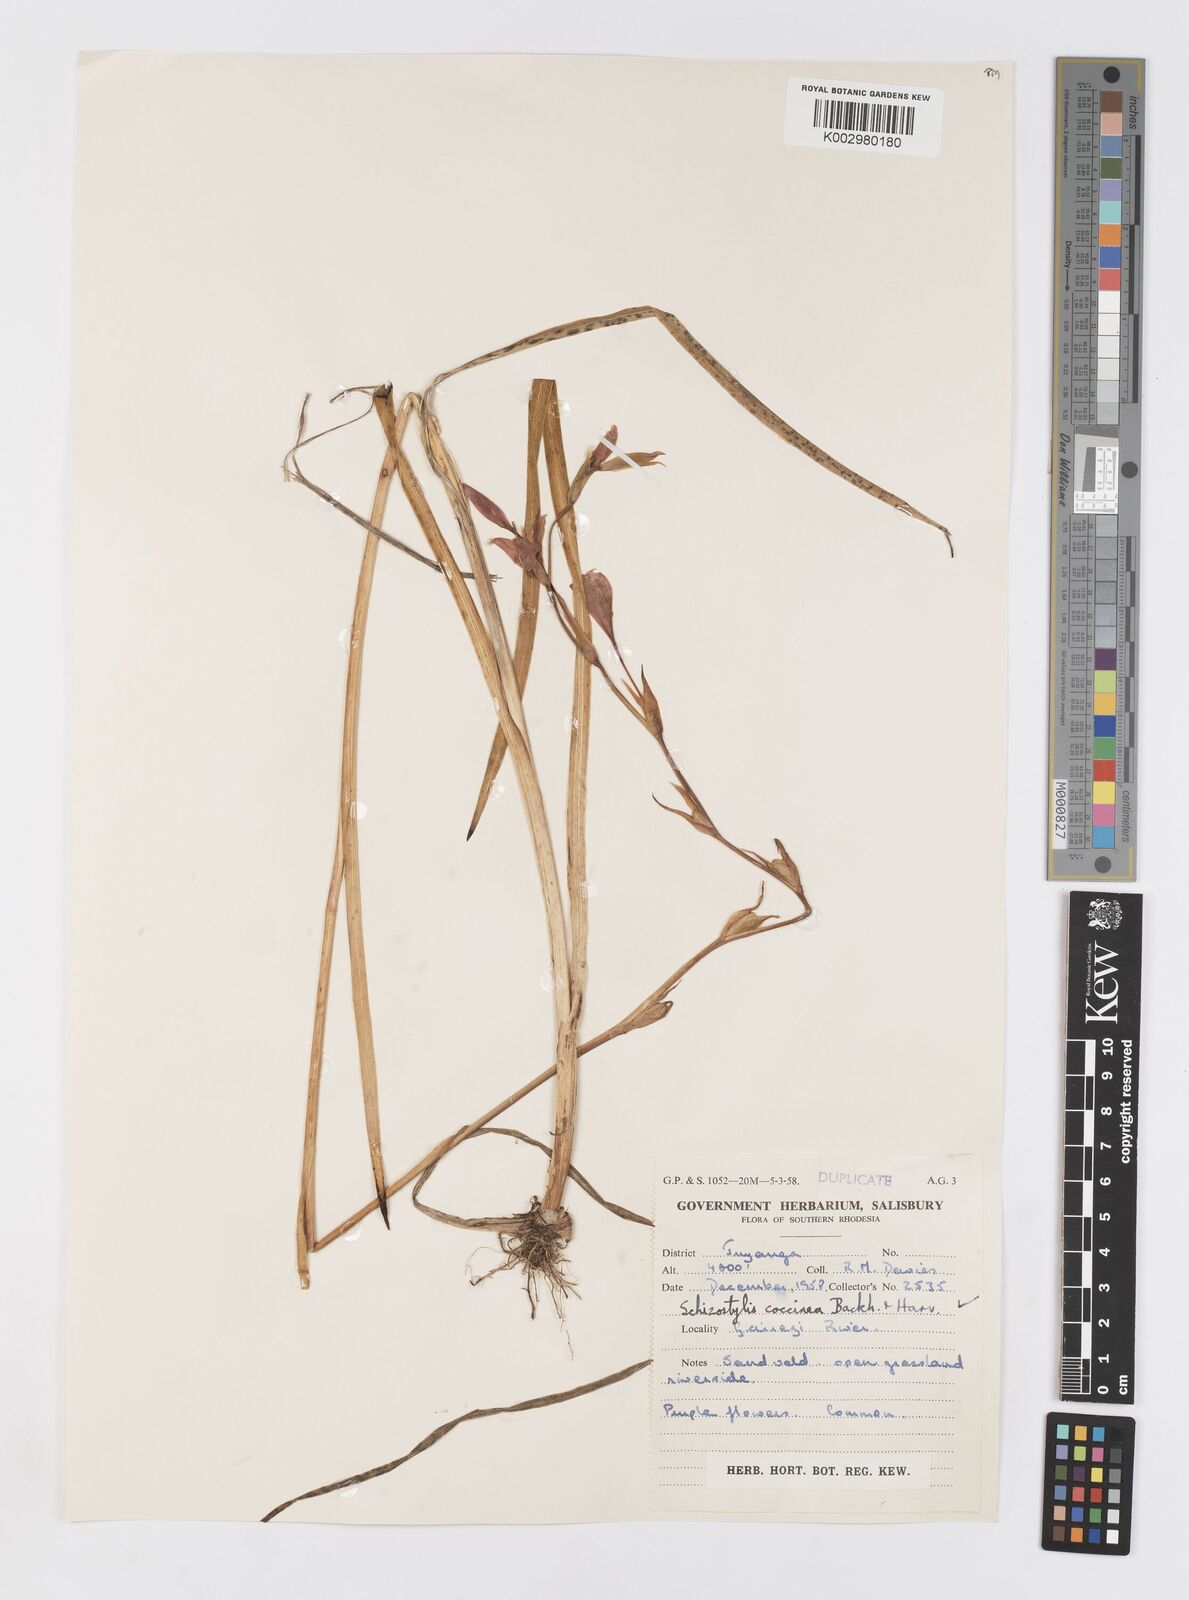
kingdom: Plantae
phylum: Tracheophyta
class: Liliopsida
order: Asparagales
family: Iridaceae
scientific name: Iridaceae
